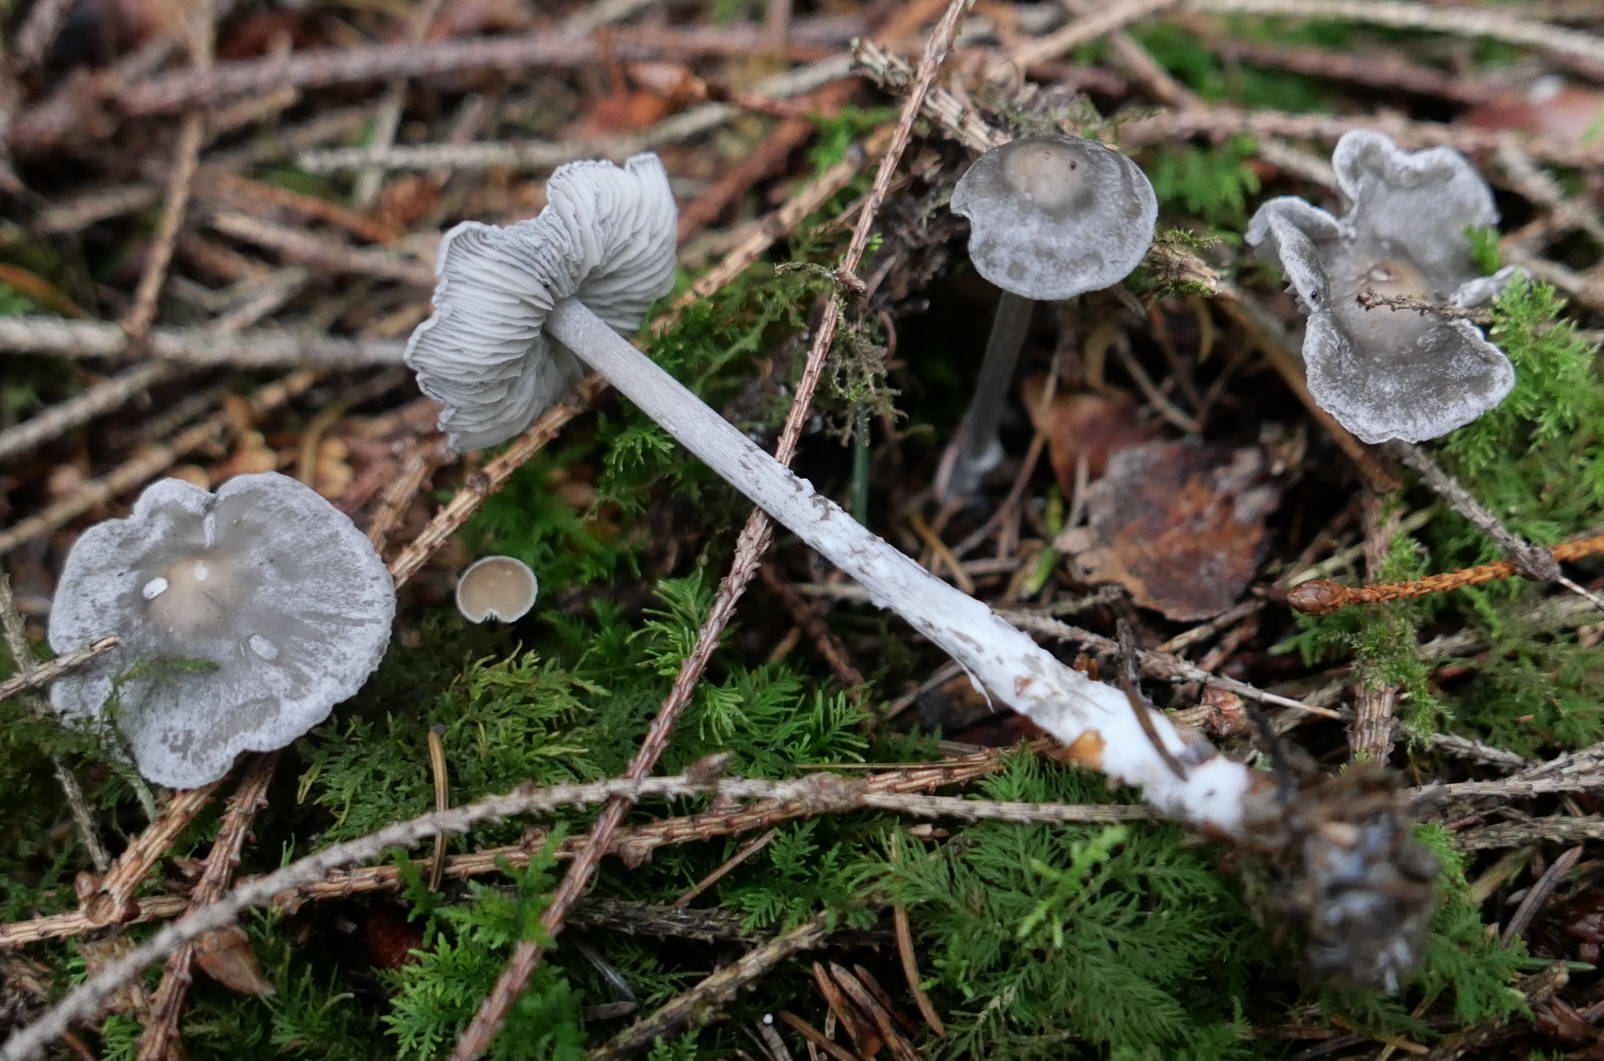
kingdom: Fungi
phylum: Basidiomycota
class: Agaricomycetes
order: Agaricales
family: Lyophyllaceae
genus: Tephrocybe
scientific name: Tephrocybe rancida
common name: mel-gråblad
